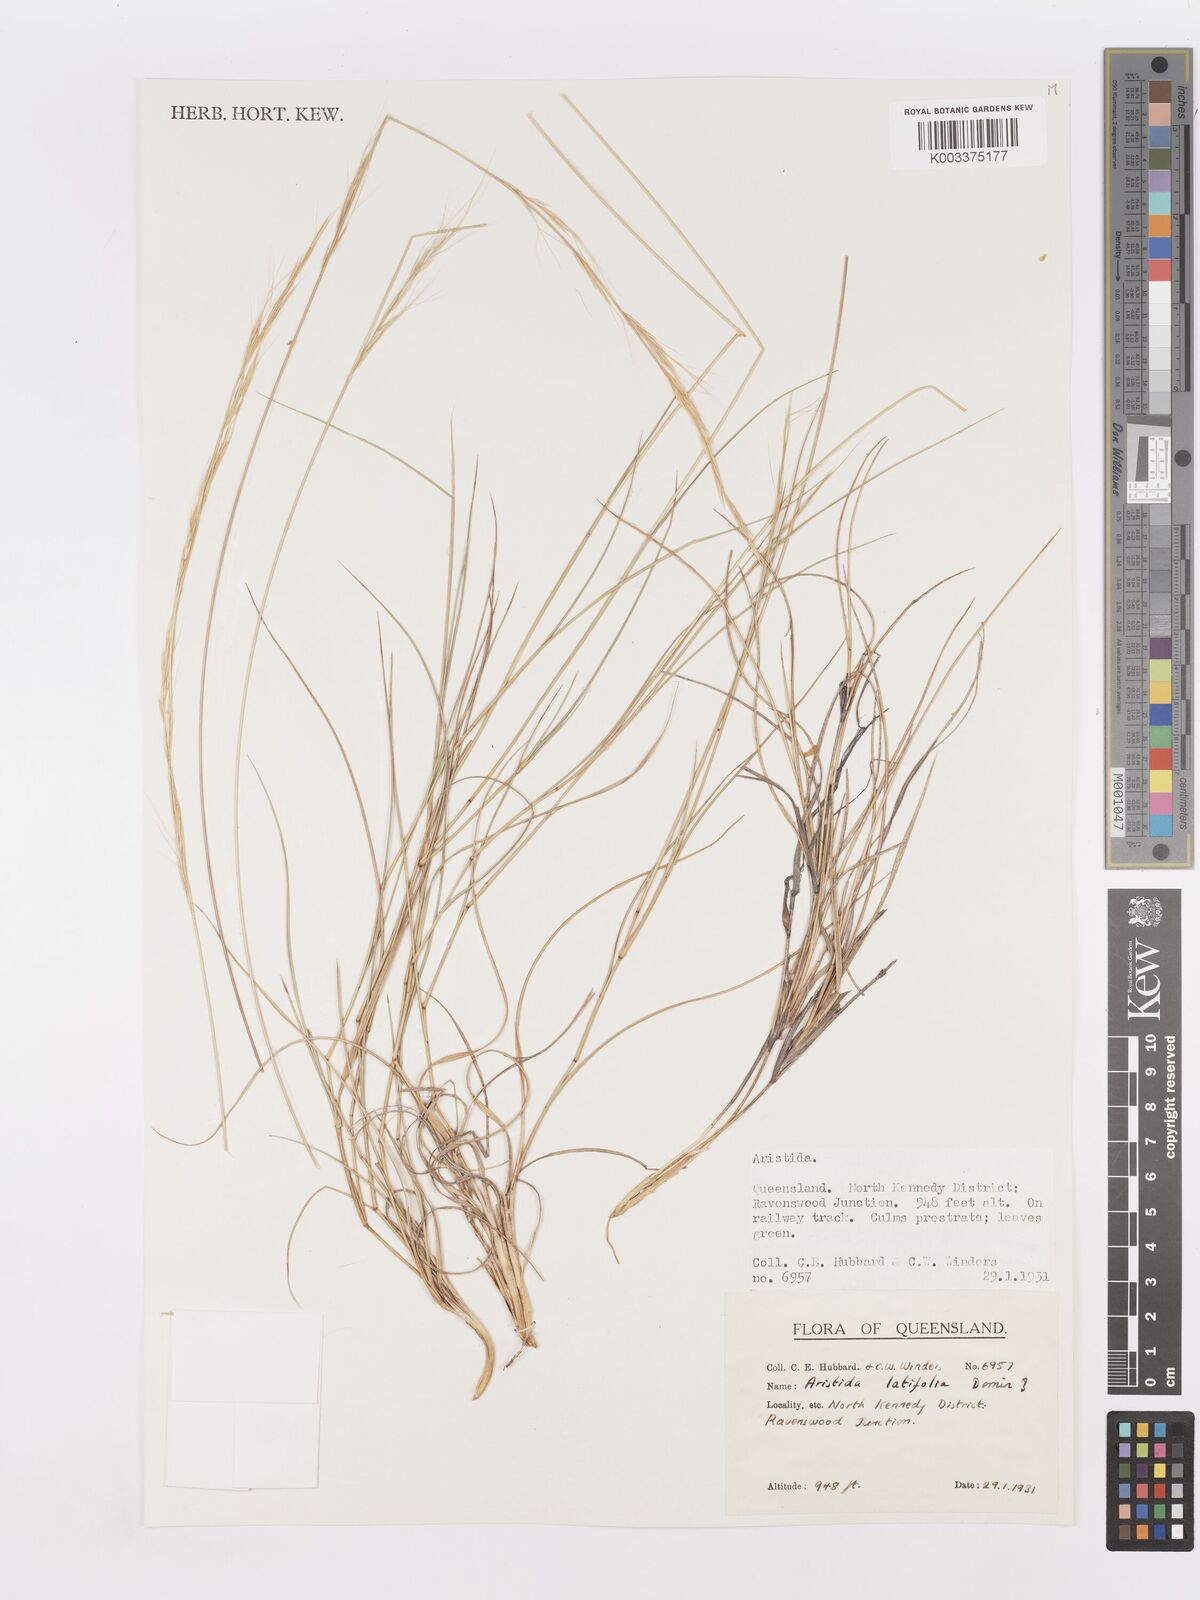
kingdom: Plantae
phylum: Tracheophyta
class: Liliopsida
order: Poales
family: Poaceae
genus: Aristida
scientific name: Aristida latifolia
